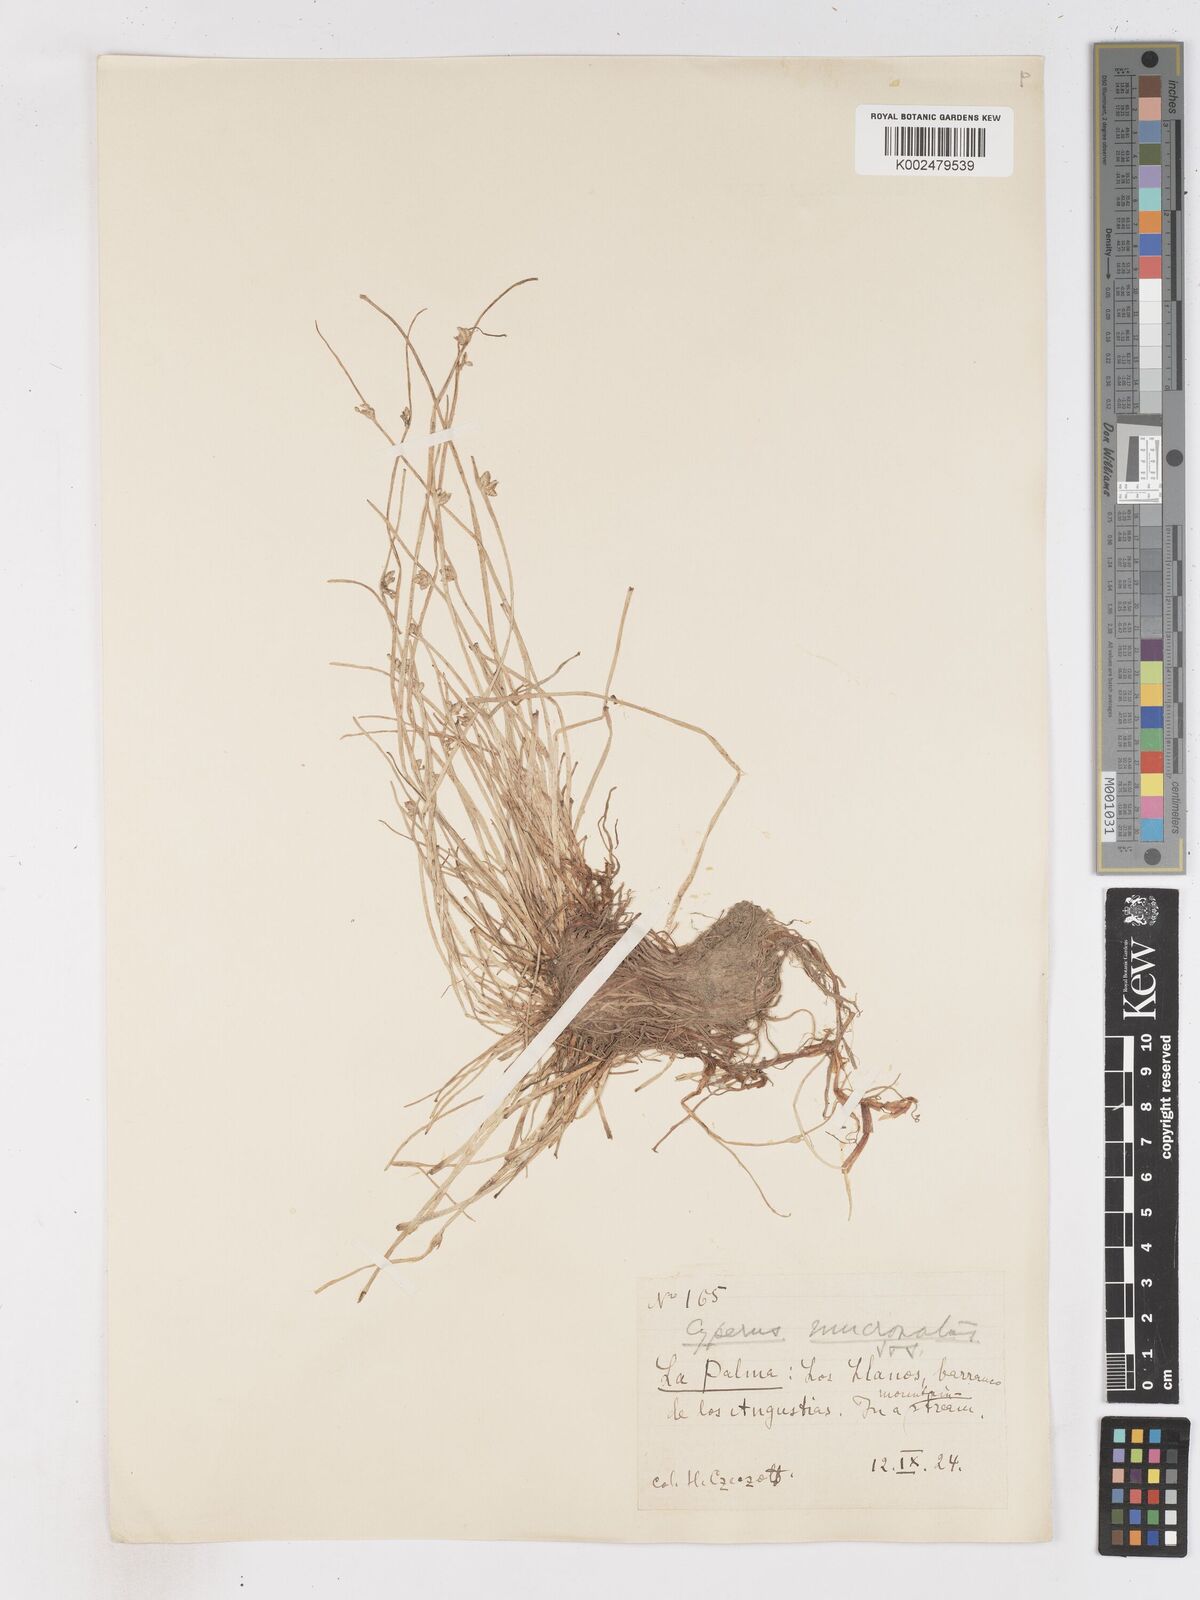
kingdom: Plantae
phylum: Tracheophyta
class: Liliopsida
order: Poales
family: Cyperaceae
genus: Cyperus
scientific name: Cyperus laevigatus
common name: Smooth flat sedge
